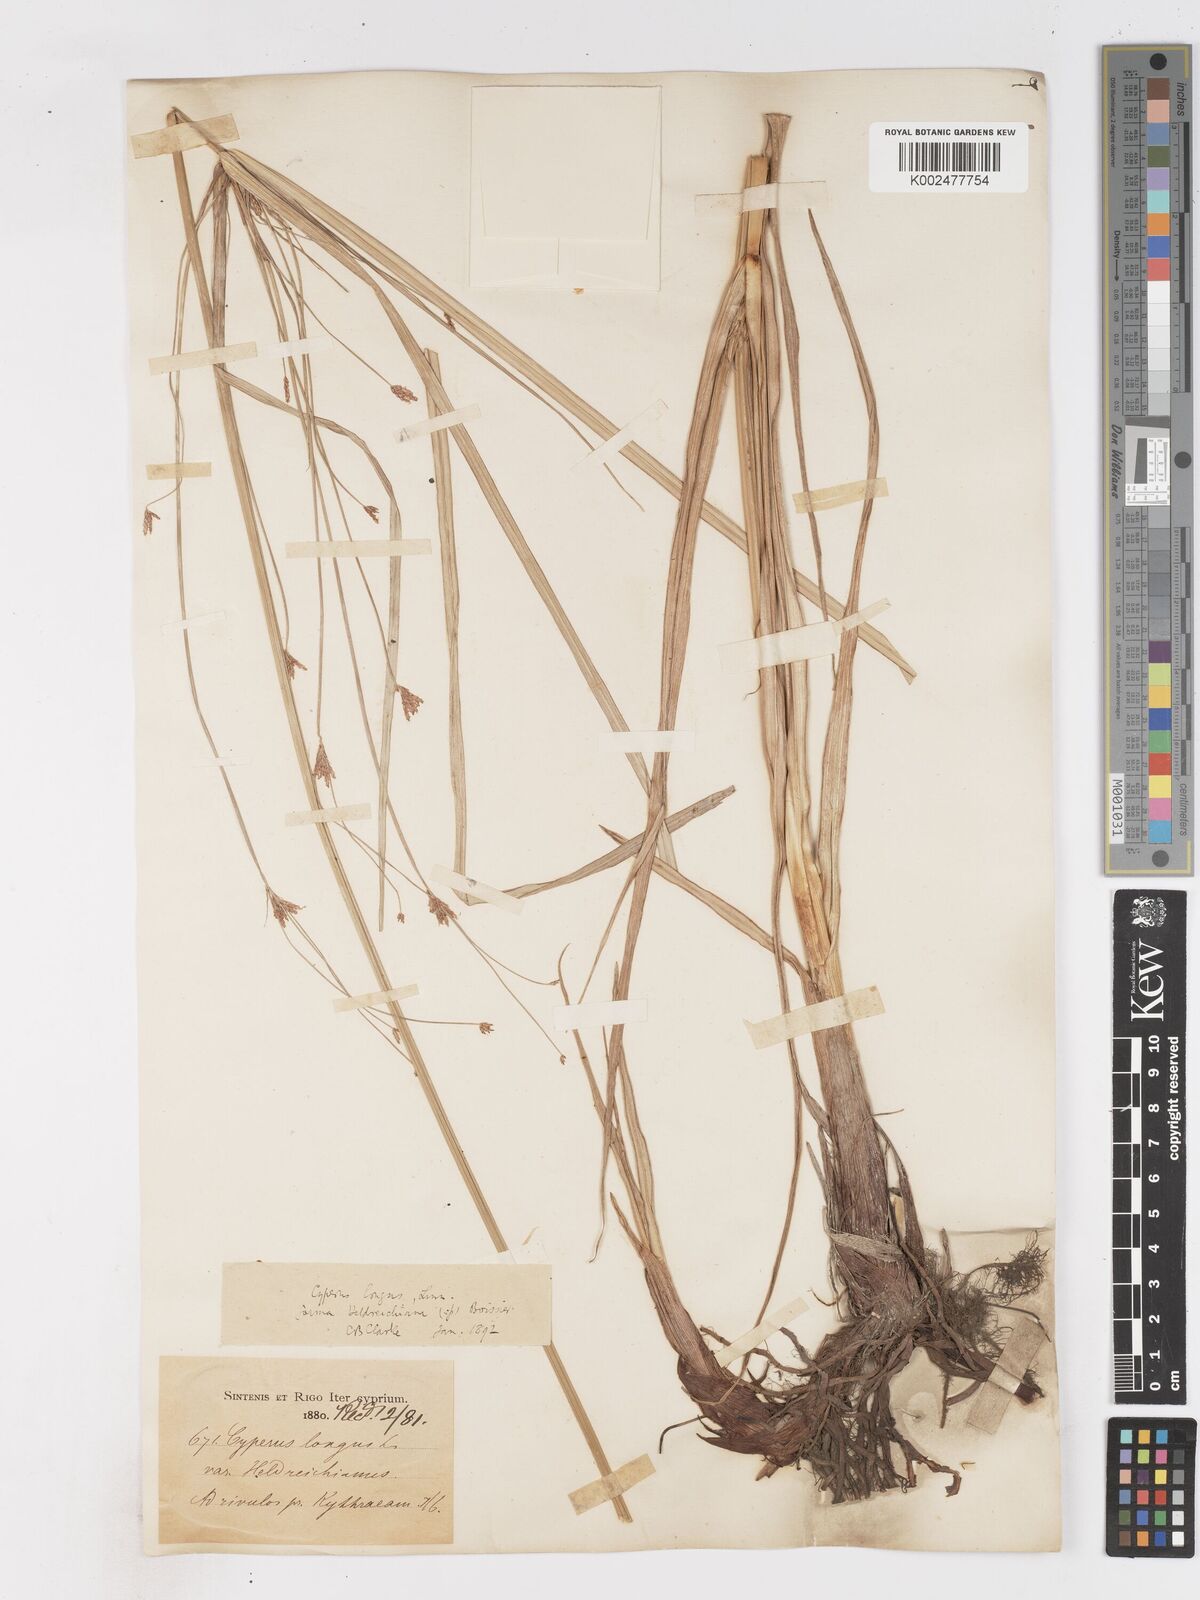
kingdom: Plantae
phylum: Tracheophyta
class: Liliopsida
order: Poales
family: Cyperaceae
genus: Cyperus
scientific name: Cyperus longus
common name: Galingale
